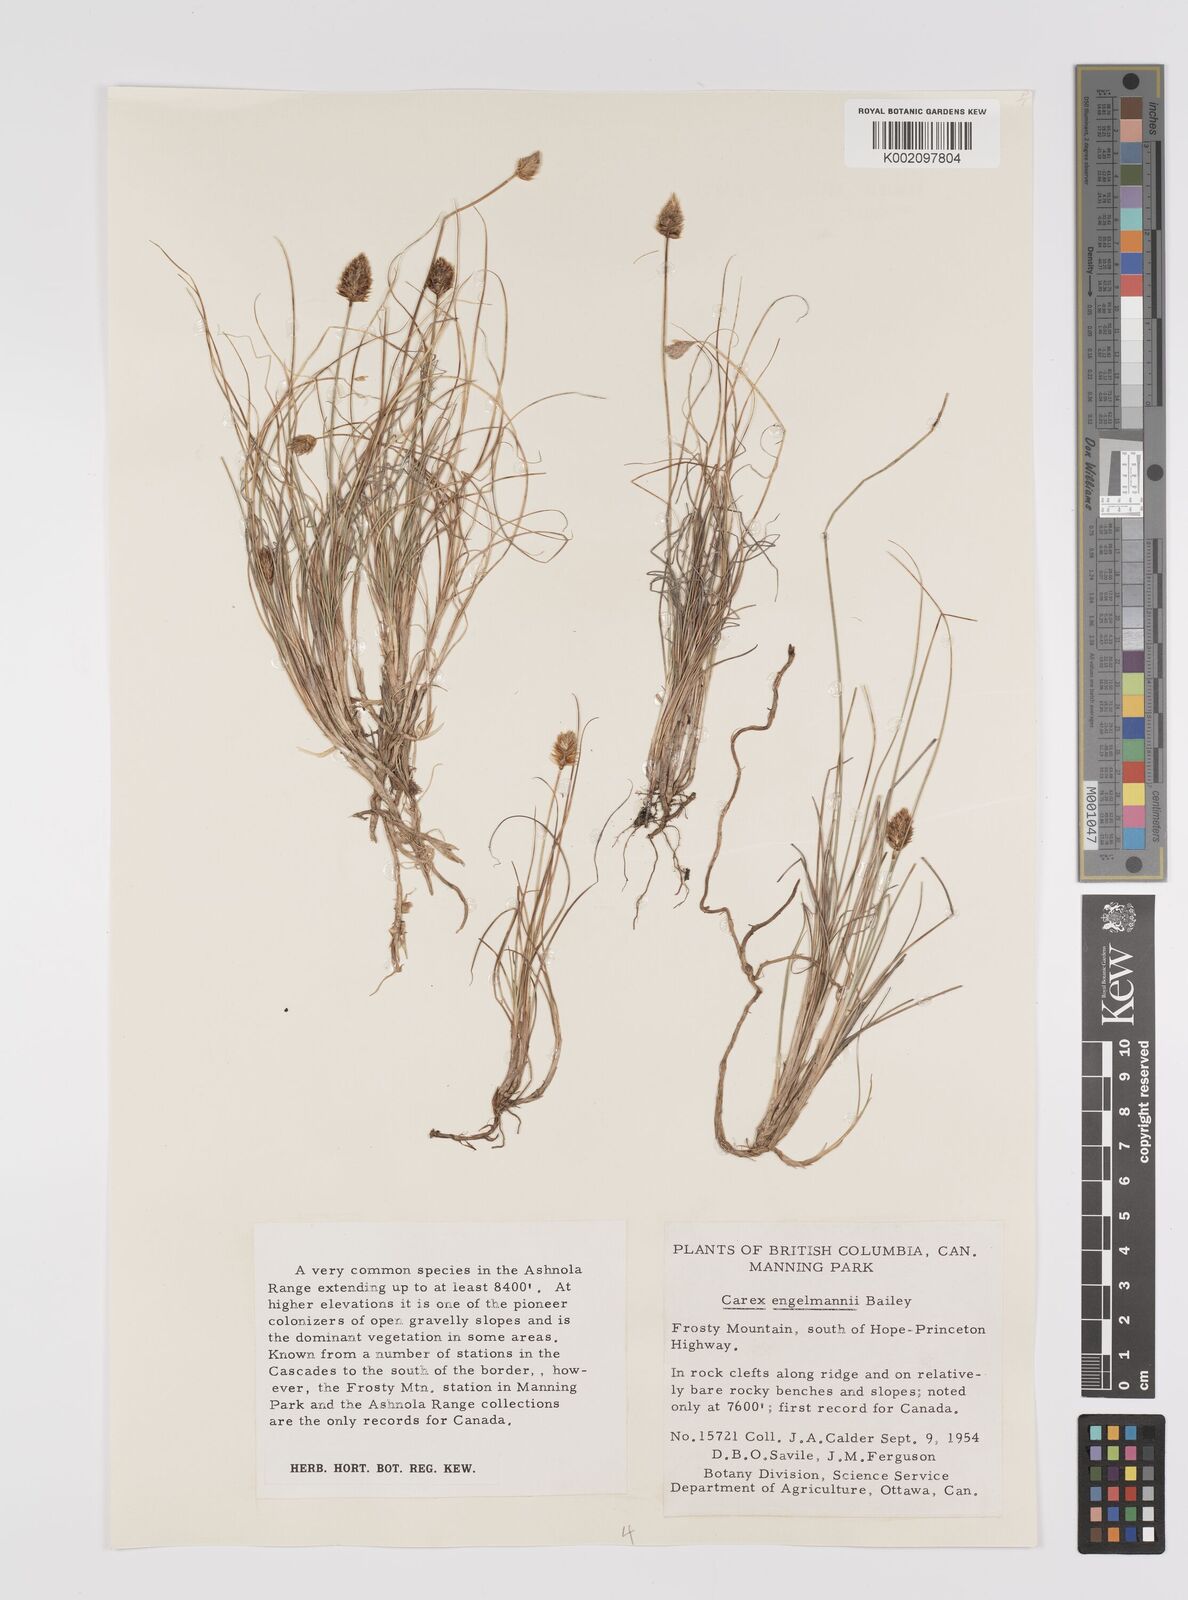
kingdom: Plantae
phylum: Tracheophyta
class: Liliopsida
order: Poales
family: Cyperaceae
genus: Carex
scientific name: Carex engelmannii
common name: Engelmann's sedge
